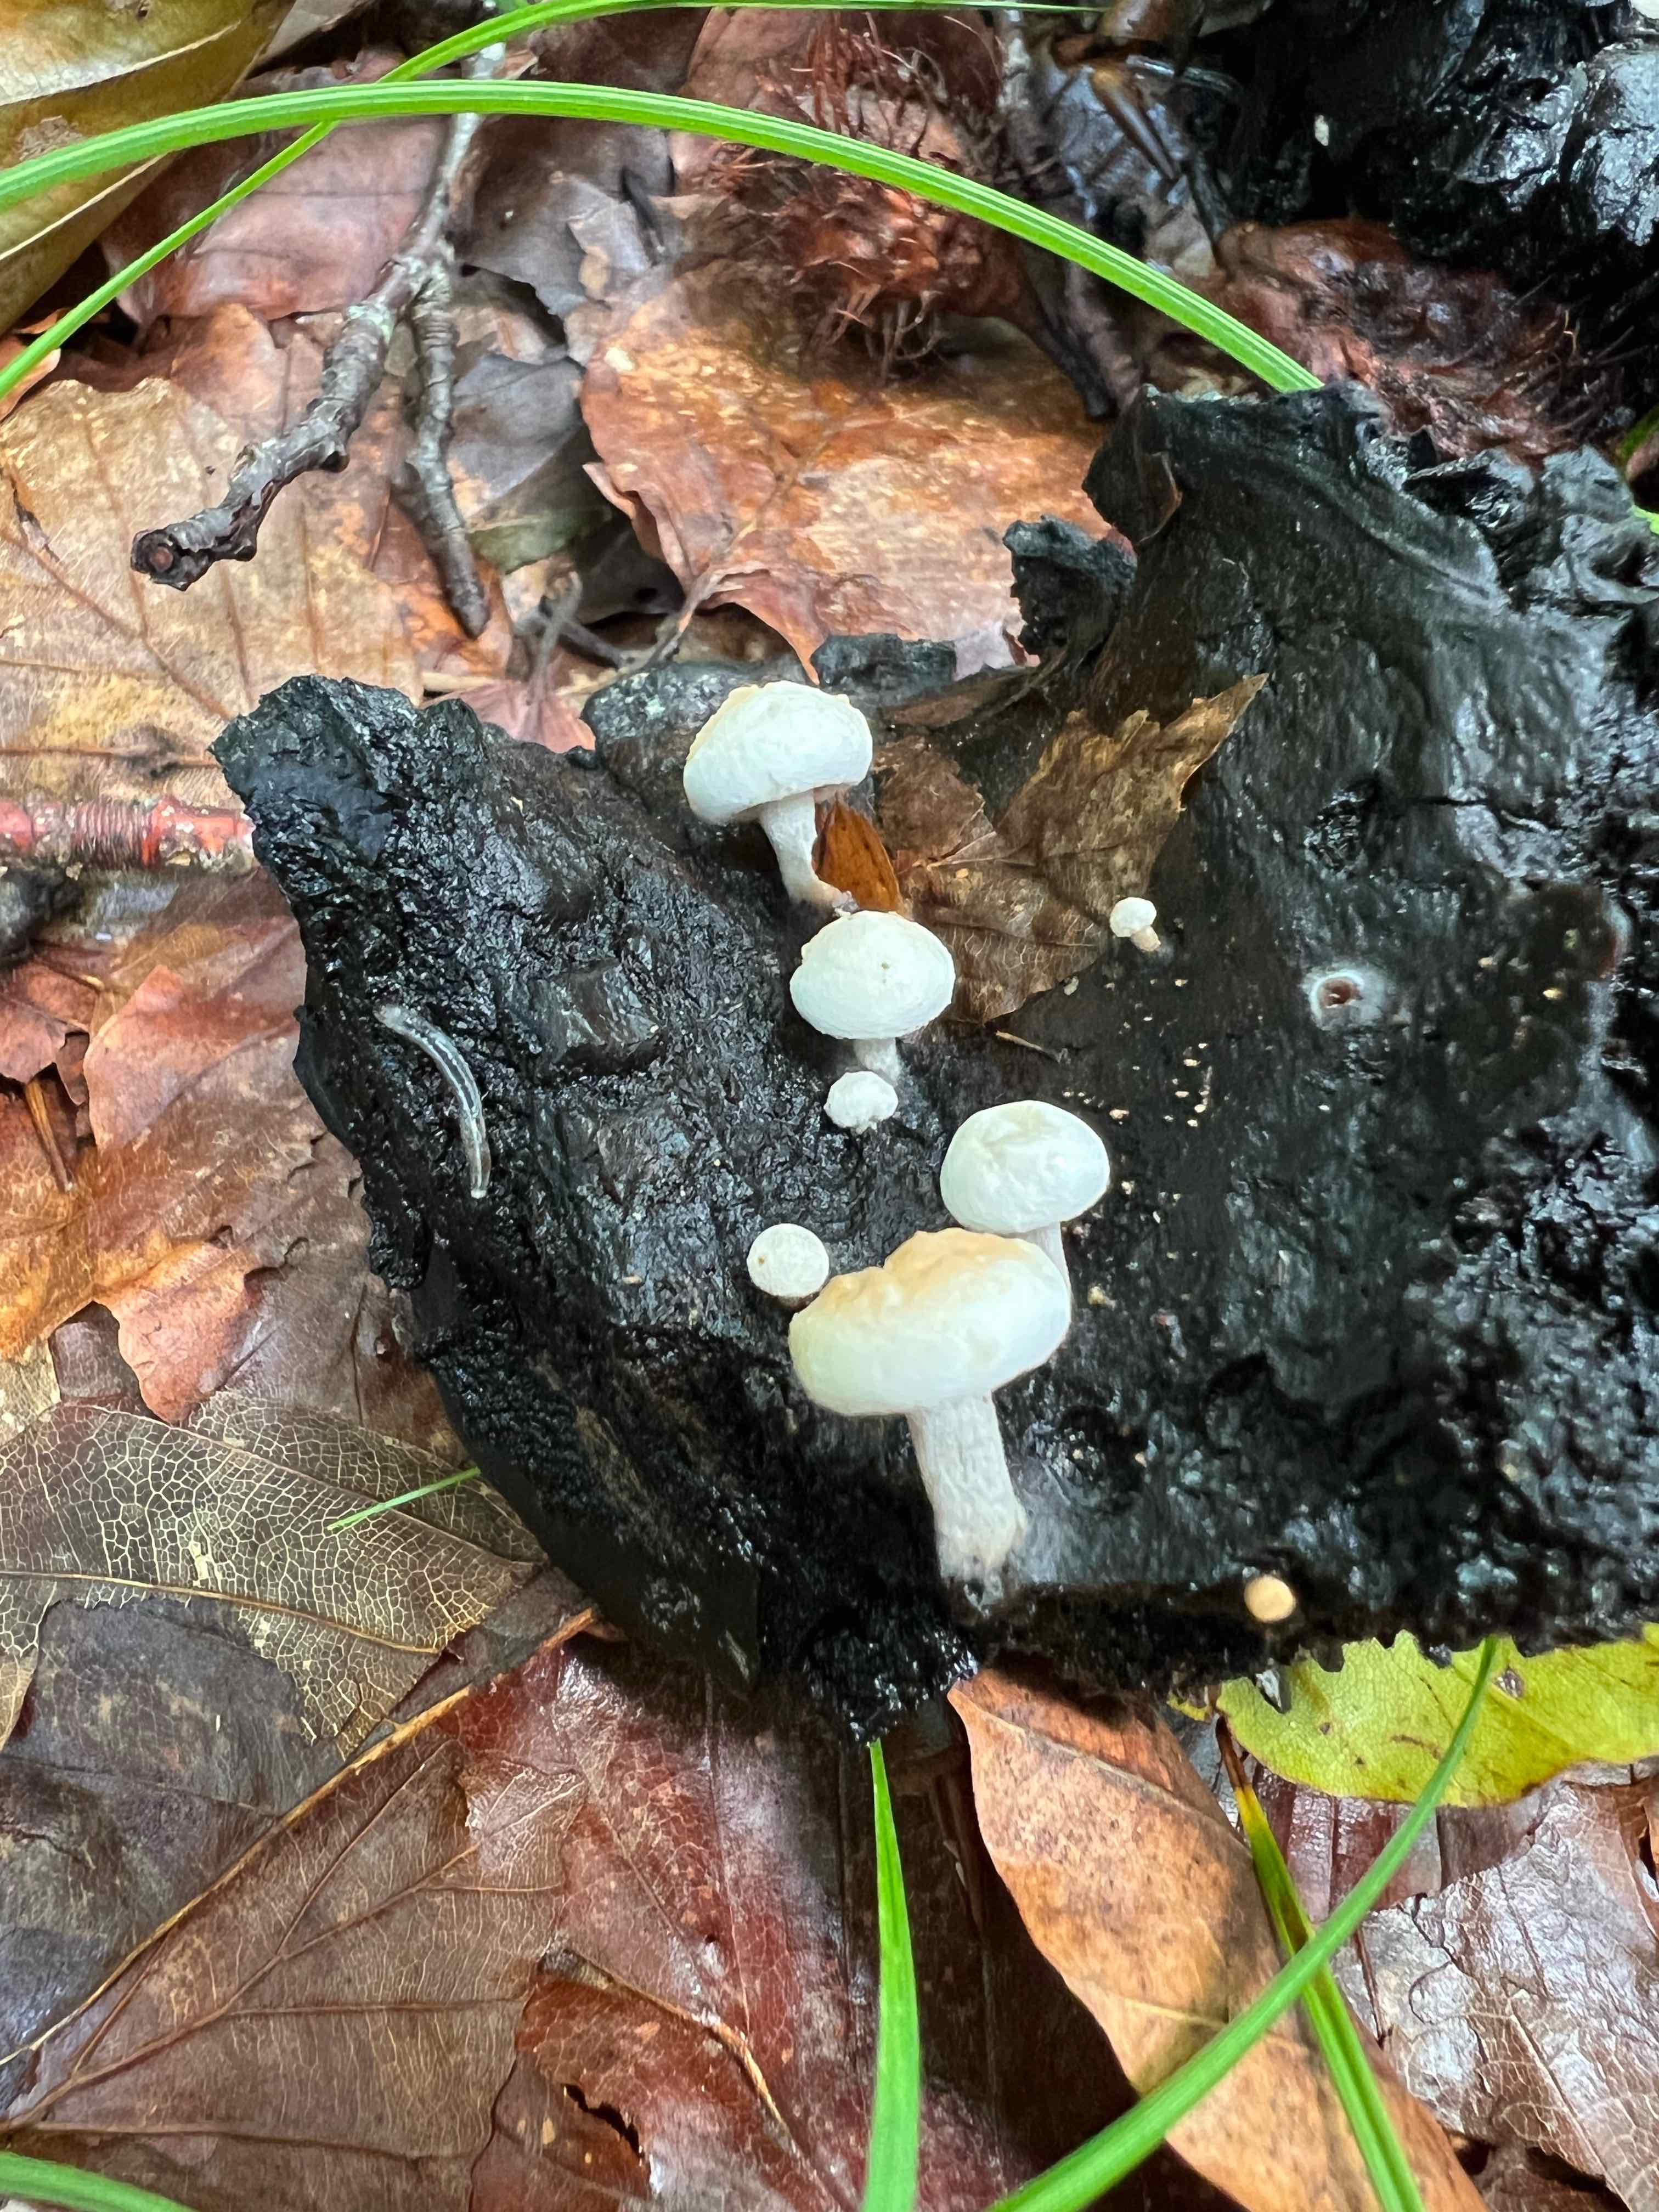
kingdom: Fungi
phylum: Basidiomycota
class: Agaricomycetes
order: Agaricales
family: Lyophyllaceae
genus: Asterophora
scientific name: Asterophora lycoperdoides
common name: brunpudret snyltehat
